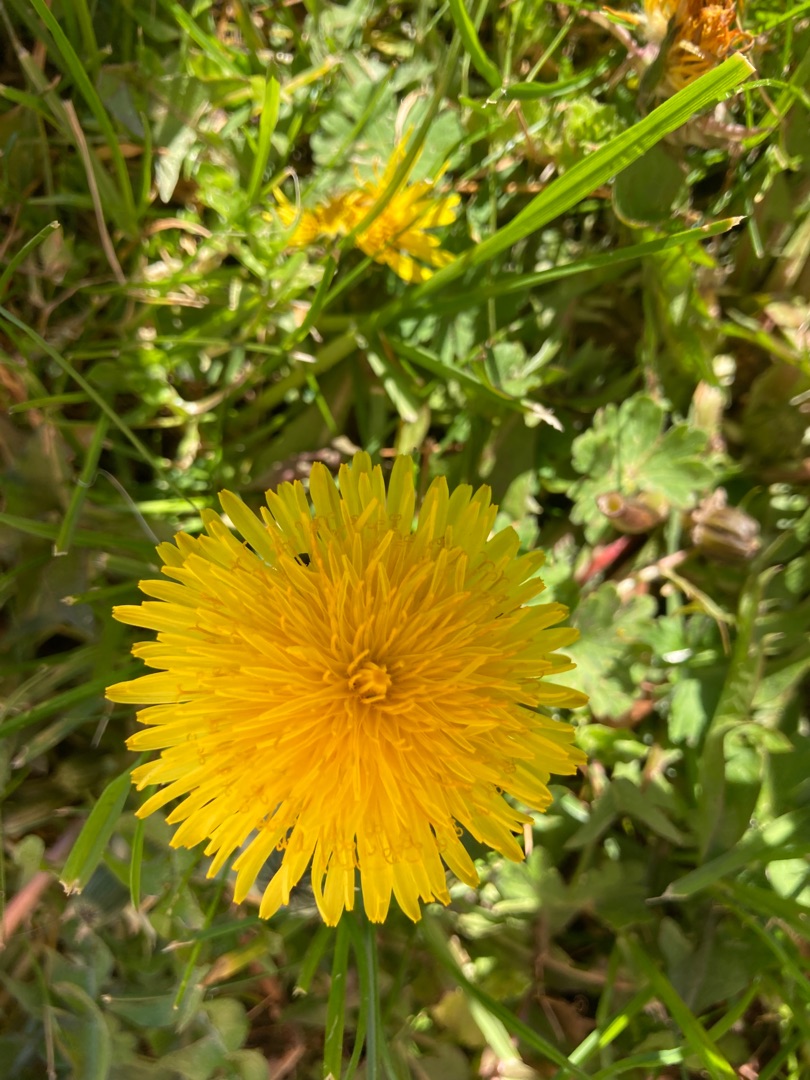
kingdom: Plantae
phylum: Tracheophyta
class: Magnoliopsida
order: Asterales
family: Asteraceae
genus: Taraxacum
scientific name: Taraxacum
